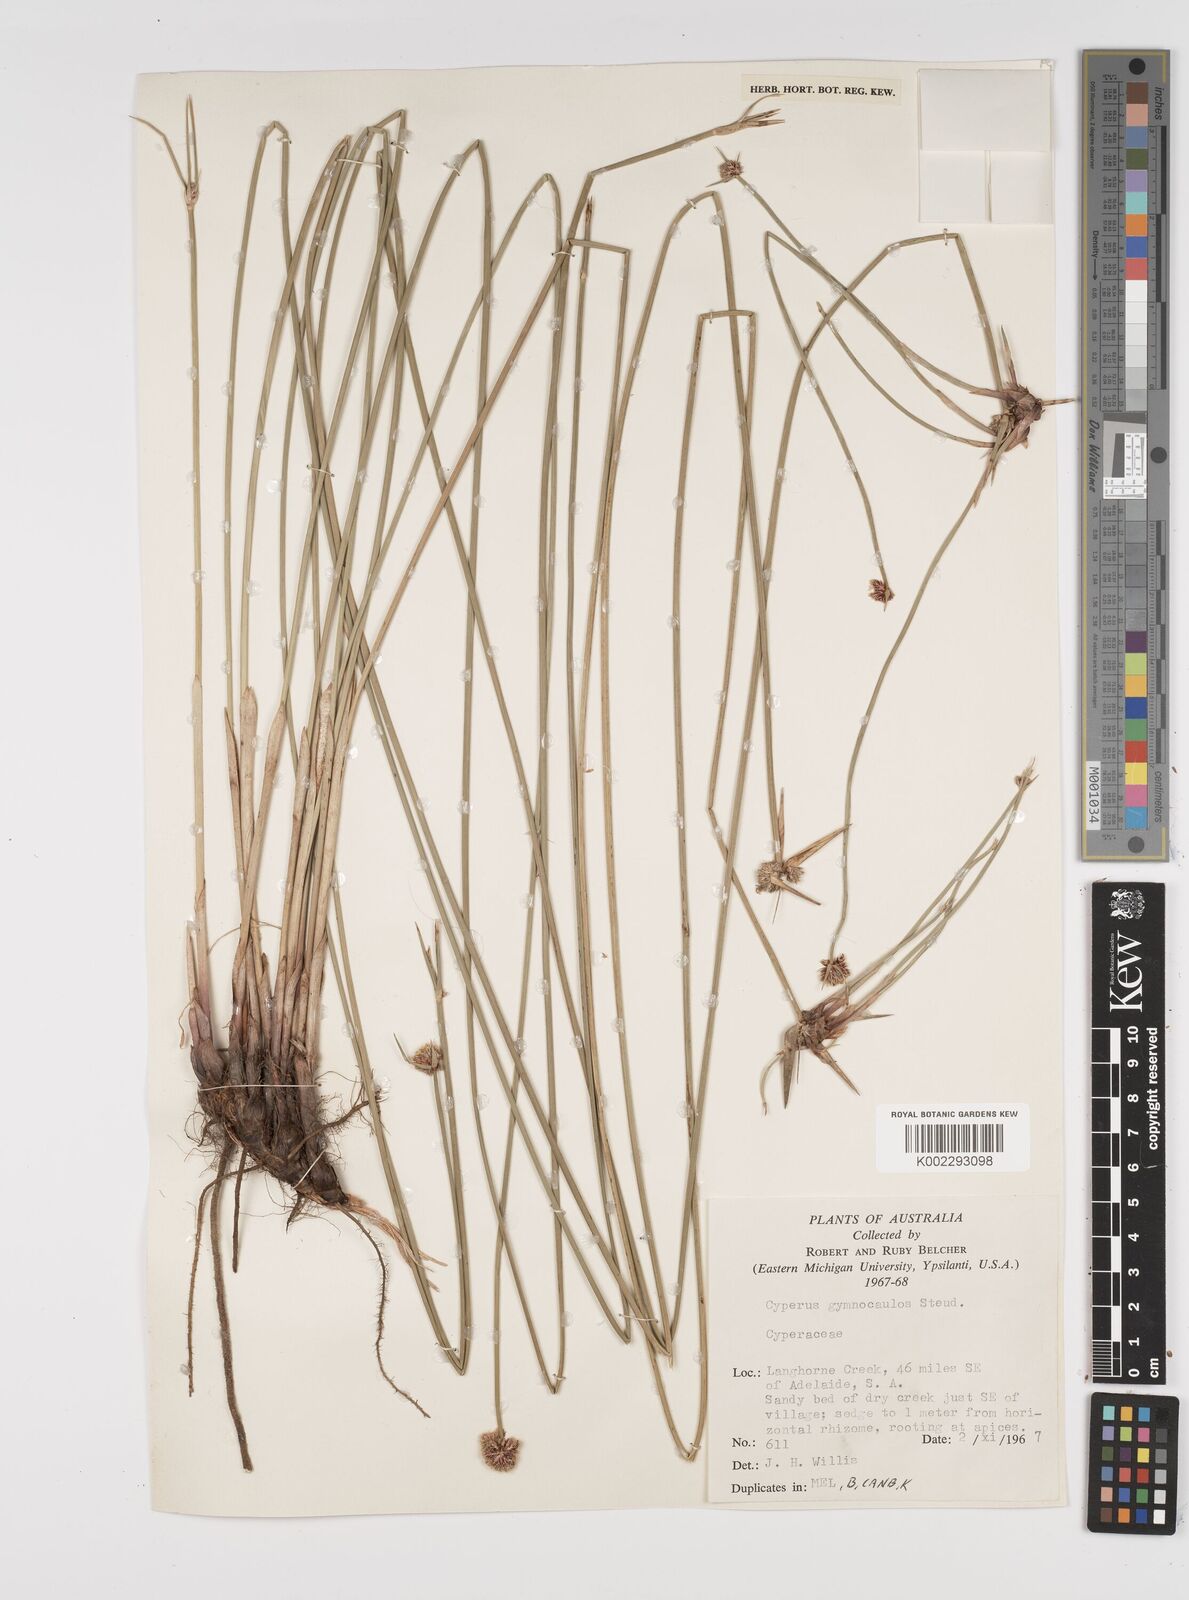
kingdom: Plantae
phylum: Tracheophyta
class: Liliopsida
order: Poales
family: Cyperaceae
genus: Cyperus
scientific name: Cyperus gymnocaulos
